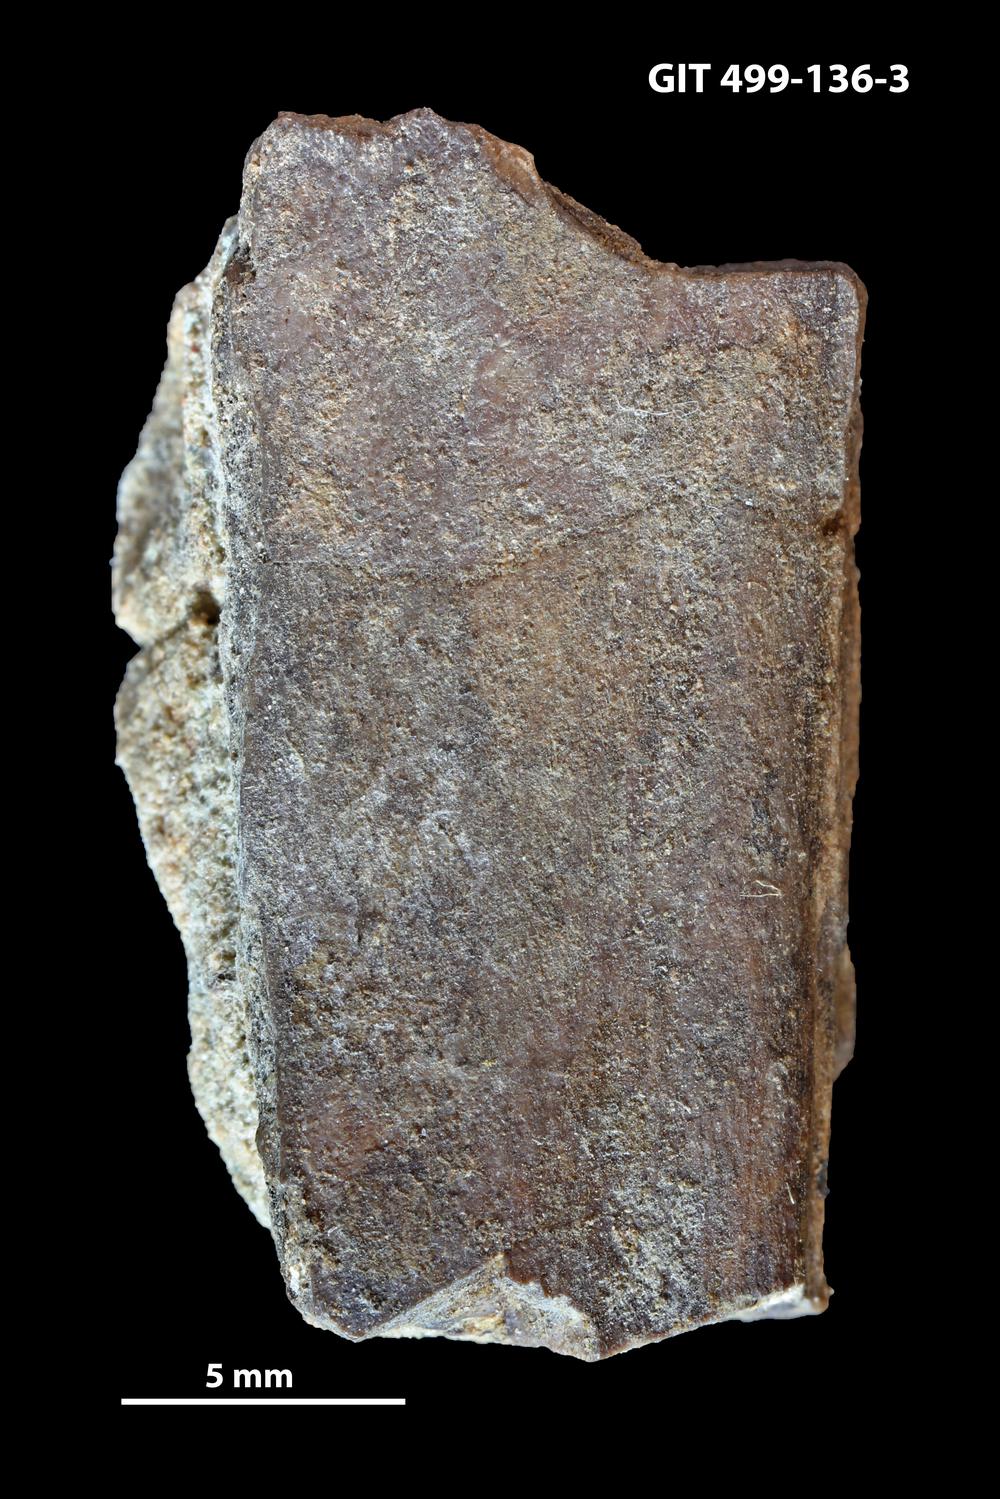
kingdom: Animalia
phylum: Chordata
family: Holoptychiidae
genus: Glyptolepis
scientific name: Glyptolepis
